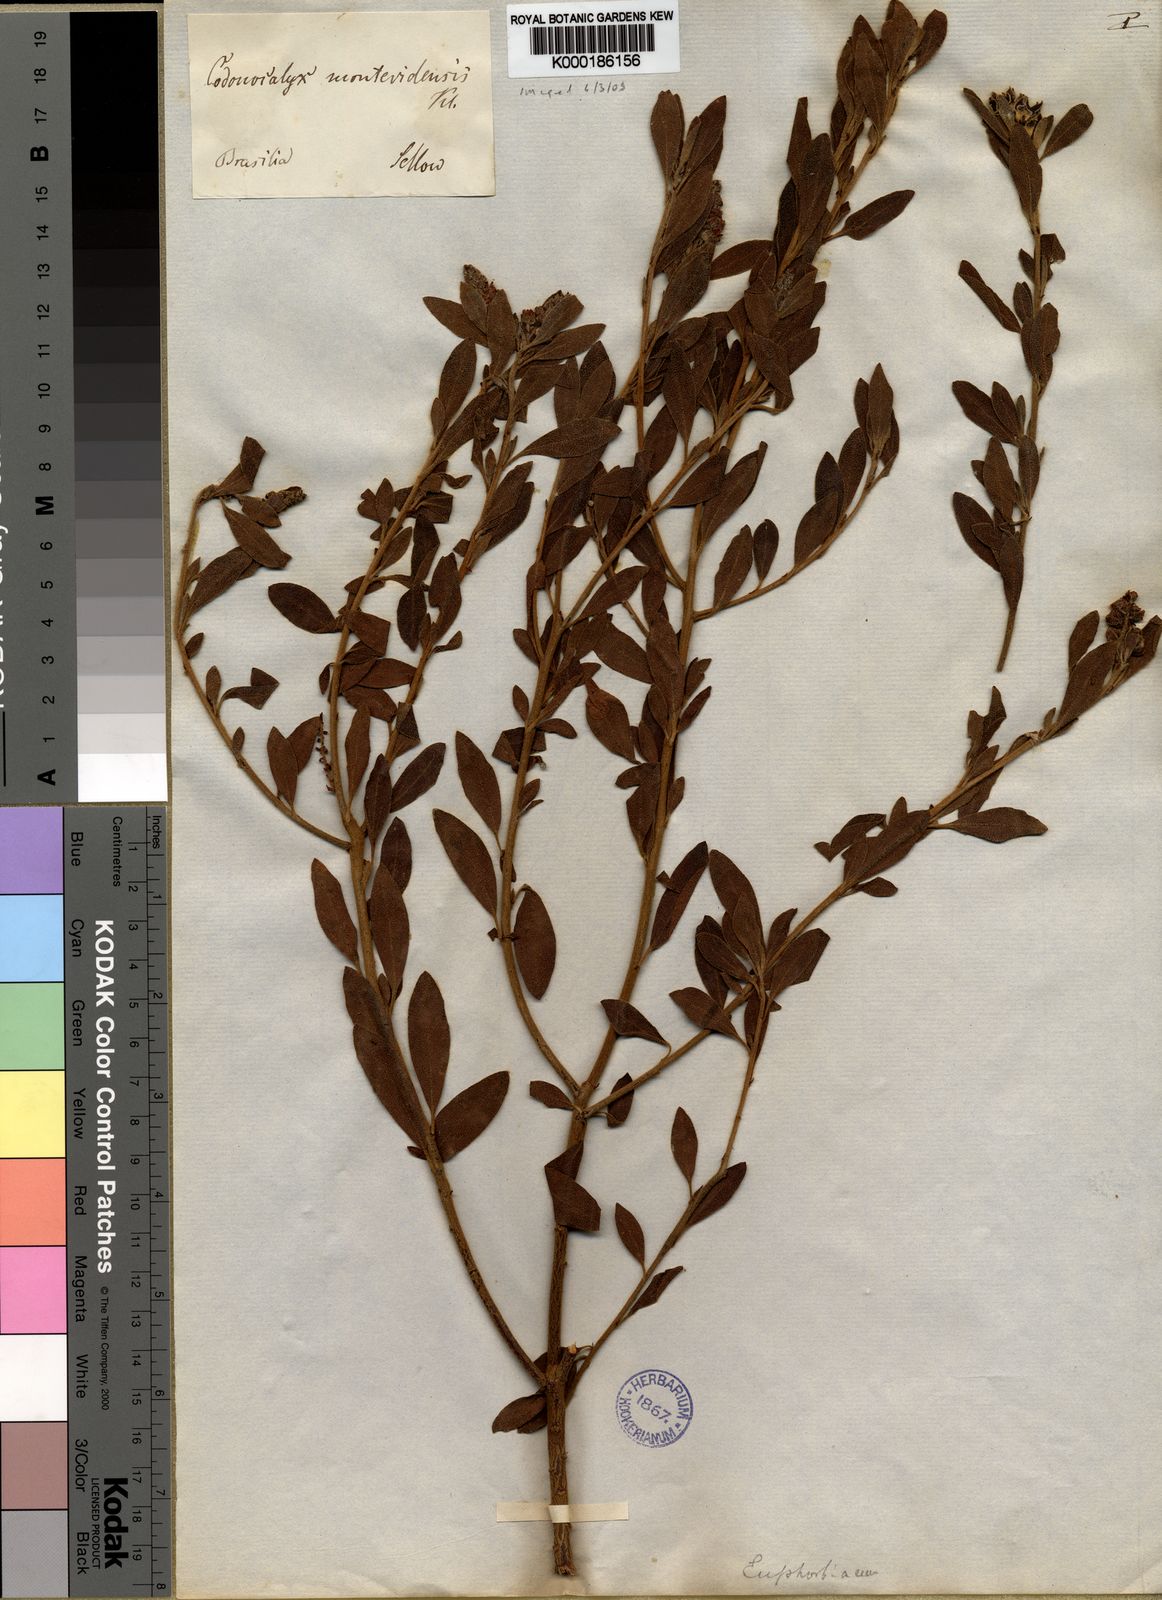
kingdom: Plantae
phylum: Tracheophyta
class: Magnoliopsida
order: Malpighiales
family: Euphorbiaceae
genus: Croton
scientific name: Croton montevidensis
